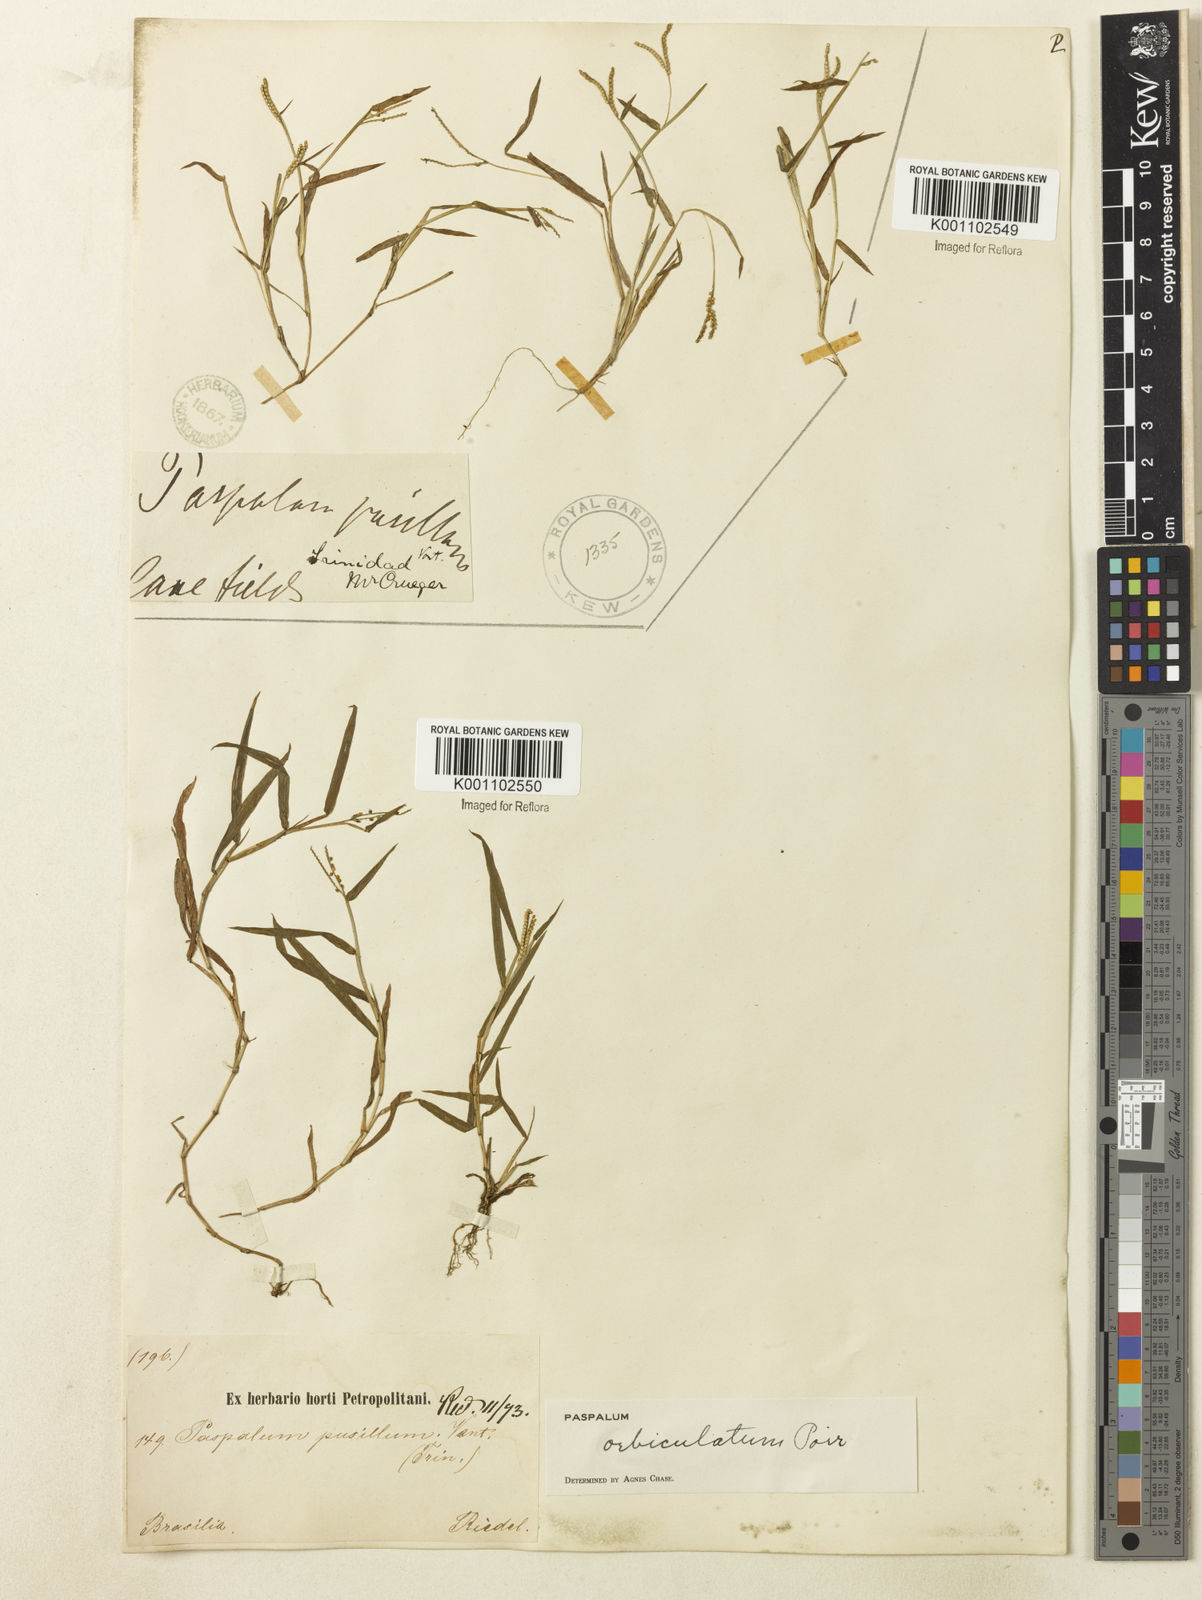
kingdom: Plantae
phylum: Tracheophyta
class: Liliopsida
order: Poales
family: Poaceae
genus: Paspalum
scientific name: Paspalum orbiculatum
